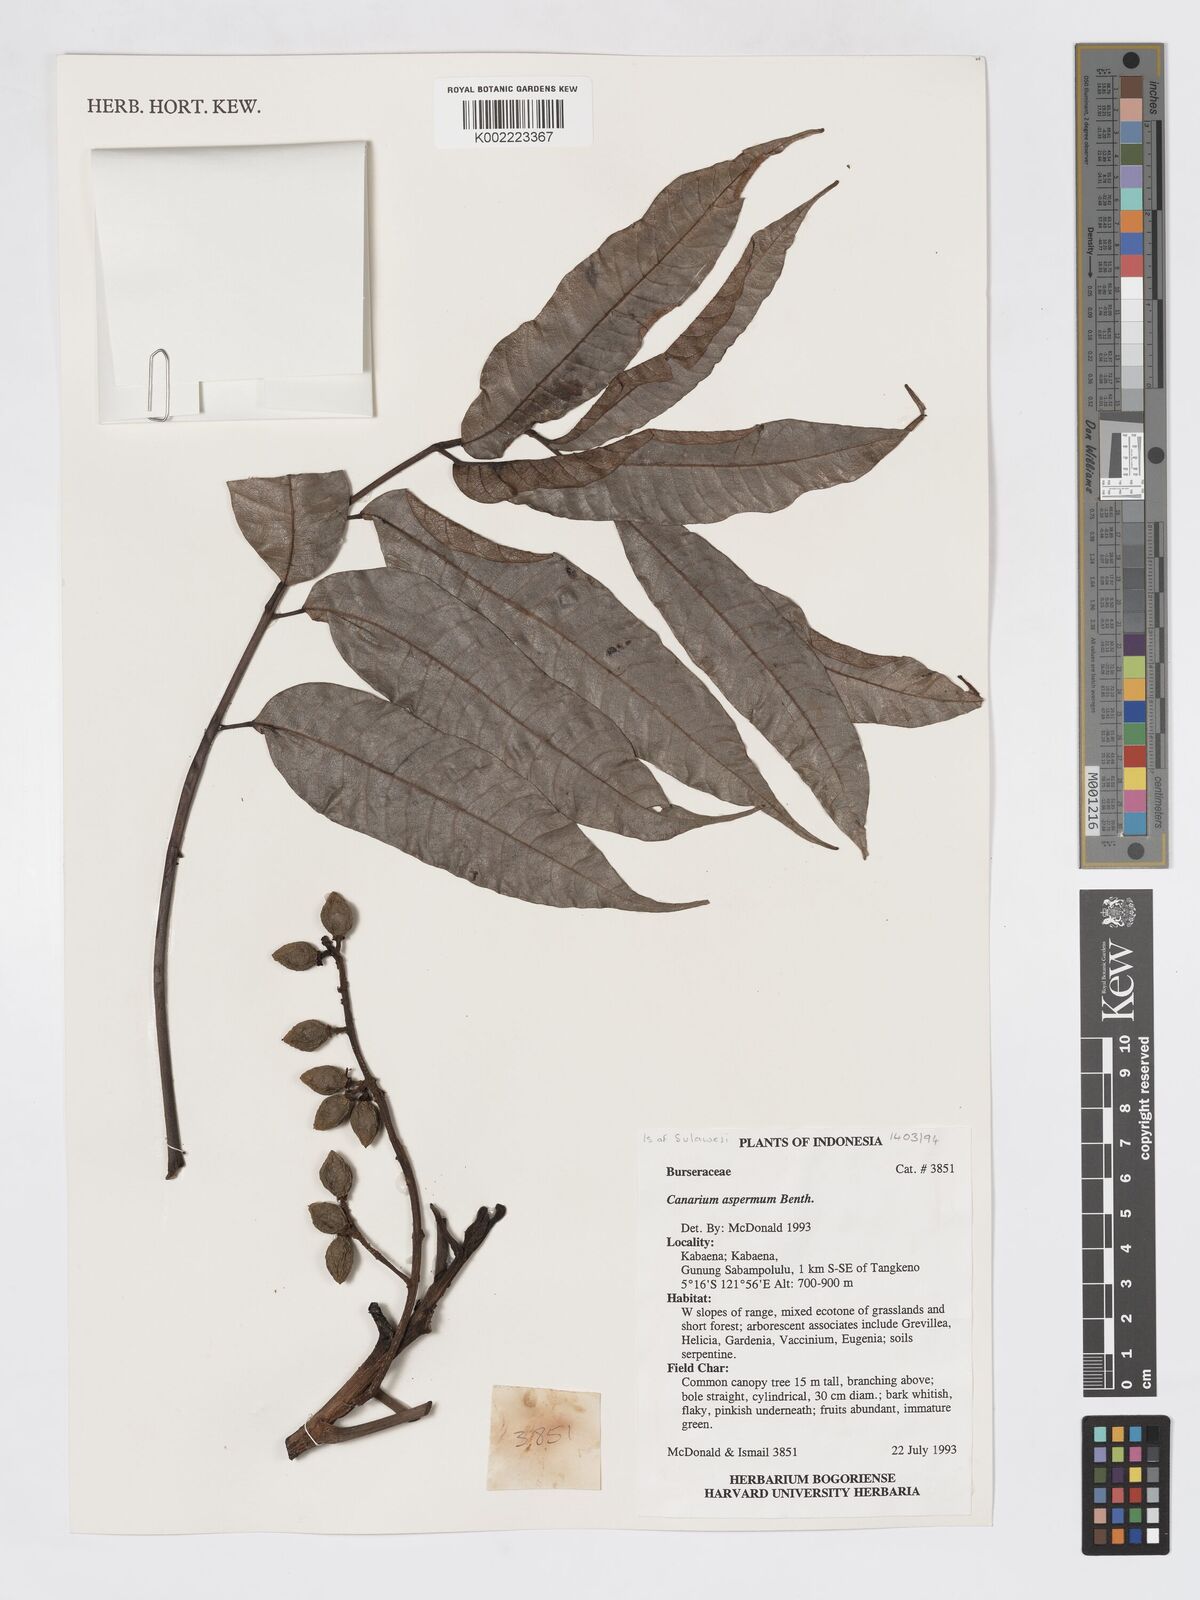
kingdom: Plantae
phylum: Tracheophyta
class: Magnoliopsida
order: Sapindales
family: Burseraceae
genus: Canarium
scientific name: Canarium asperum
